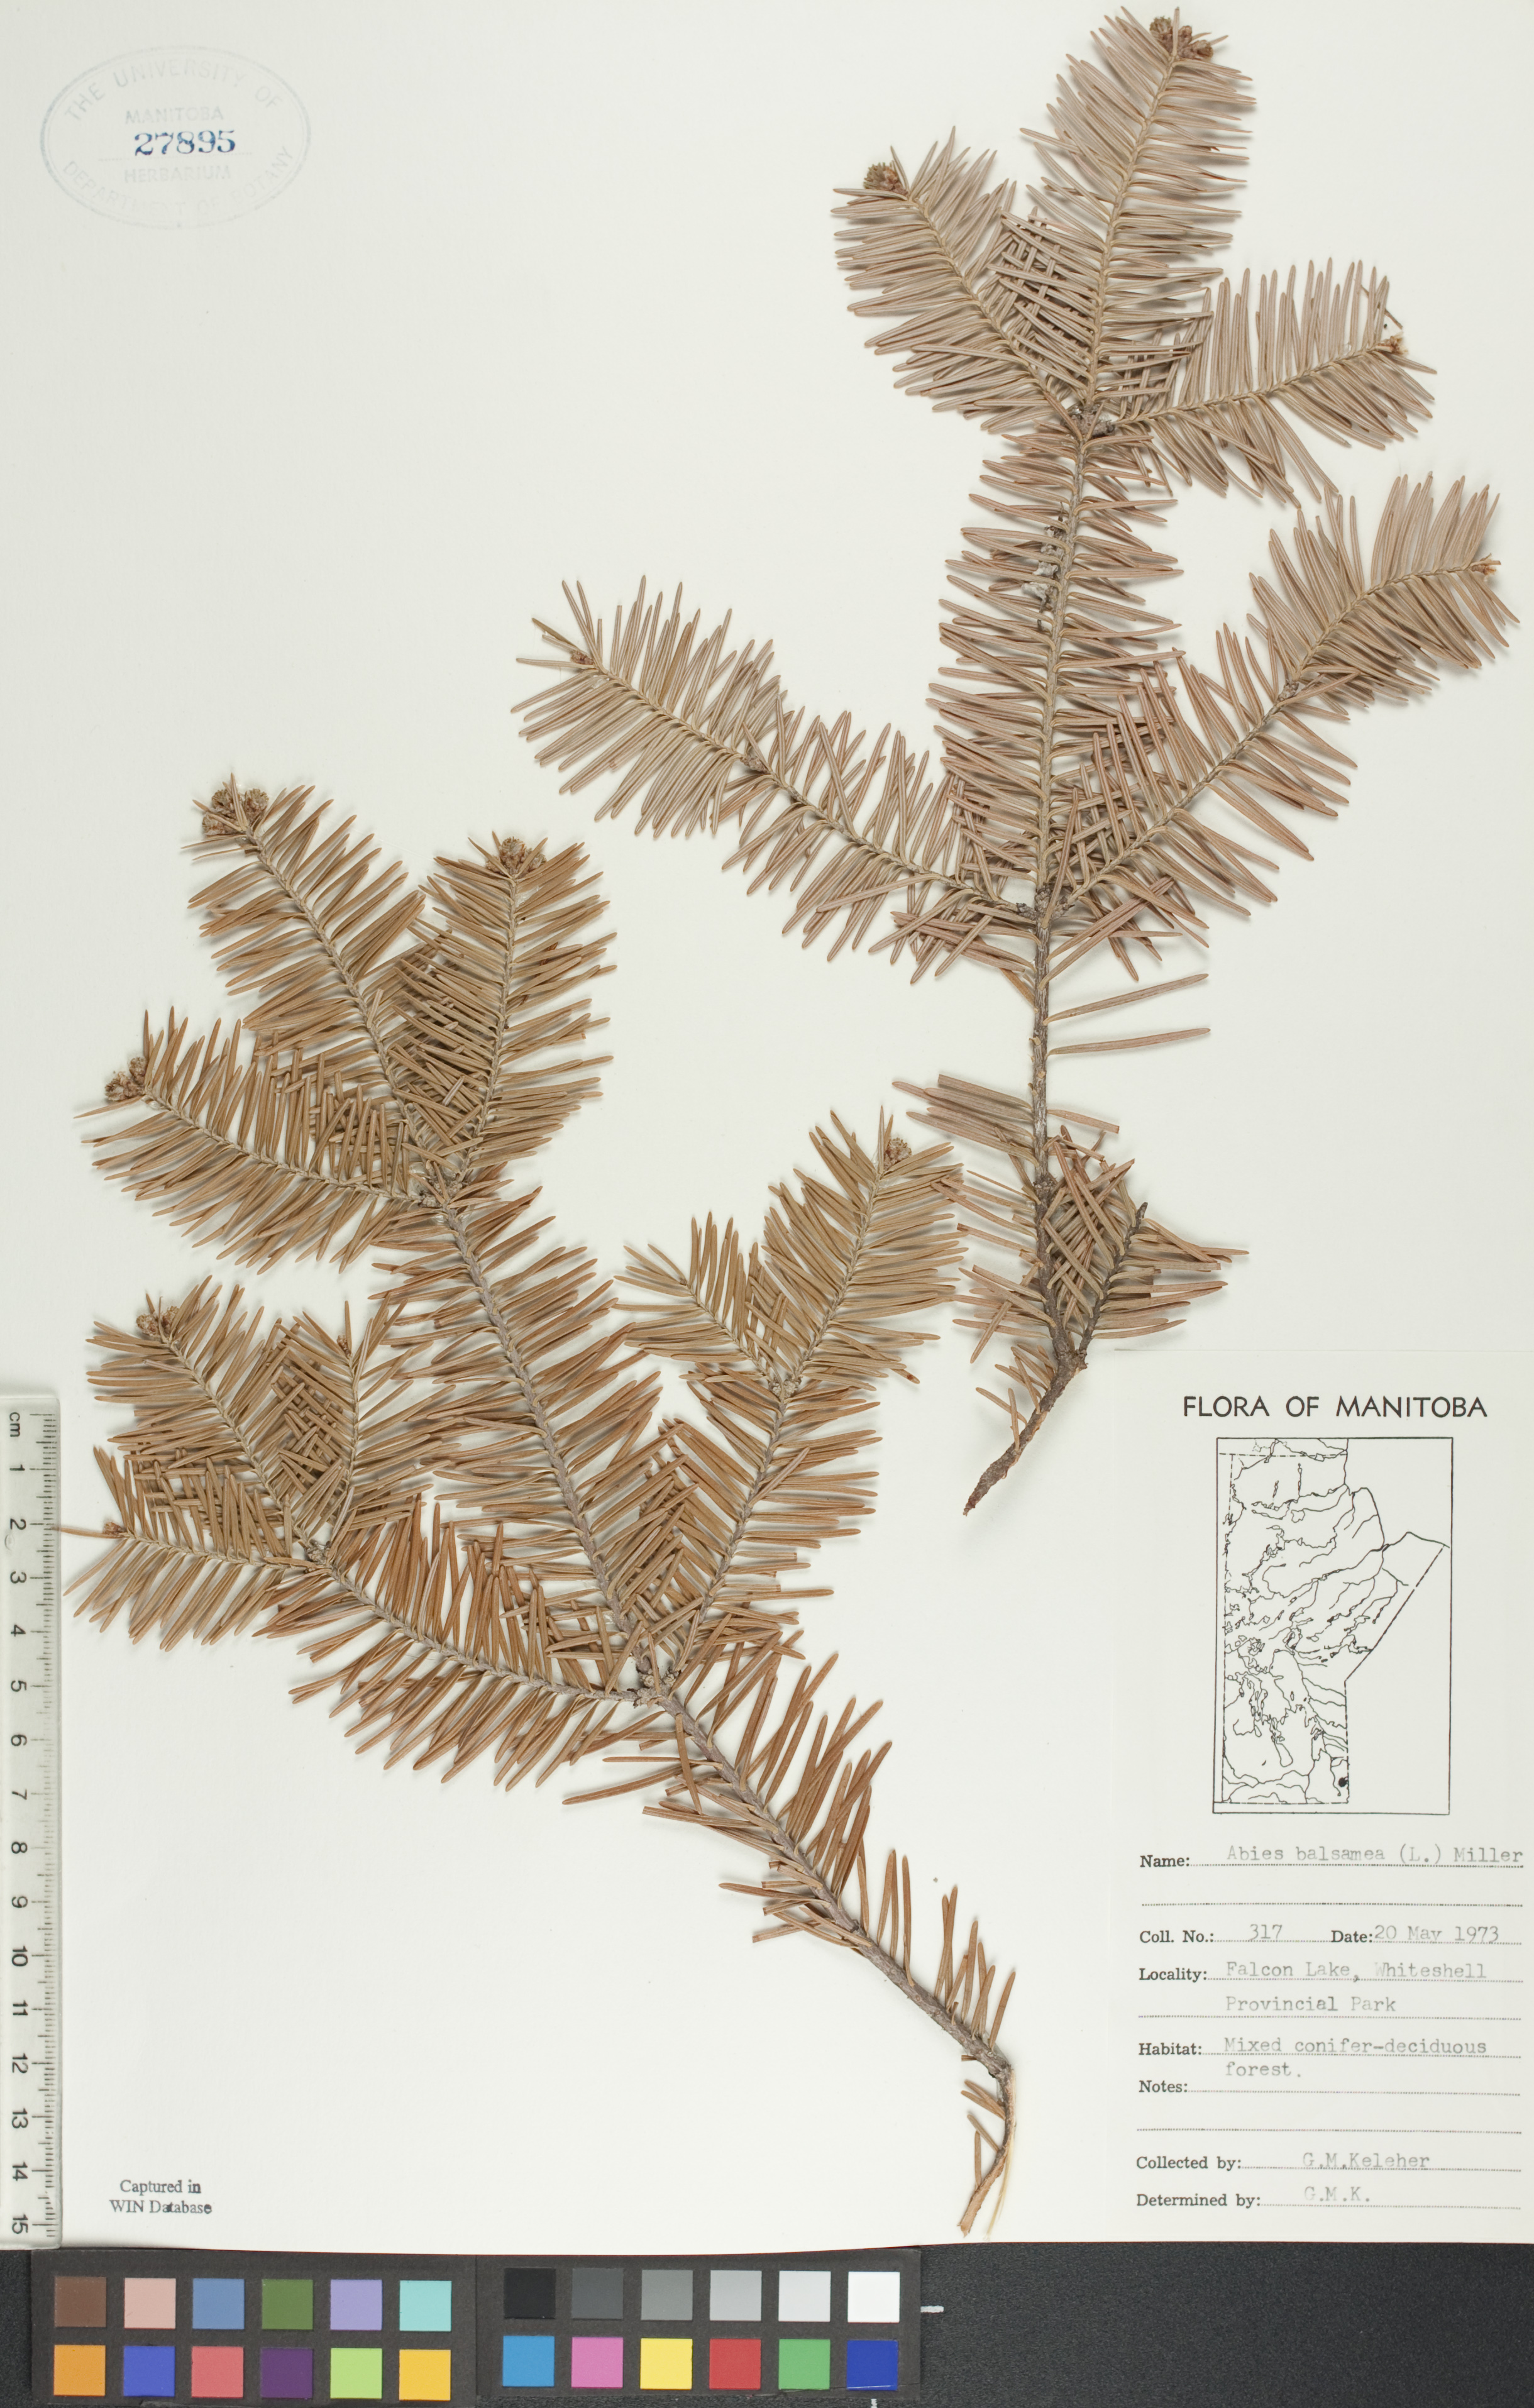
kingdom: Plantae
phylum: Tracheophyta
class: Pinopsida
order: Pinales
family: Pinaceae
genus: Abies
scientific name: Abies balsamea
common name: Balsam fir
